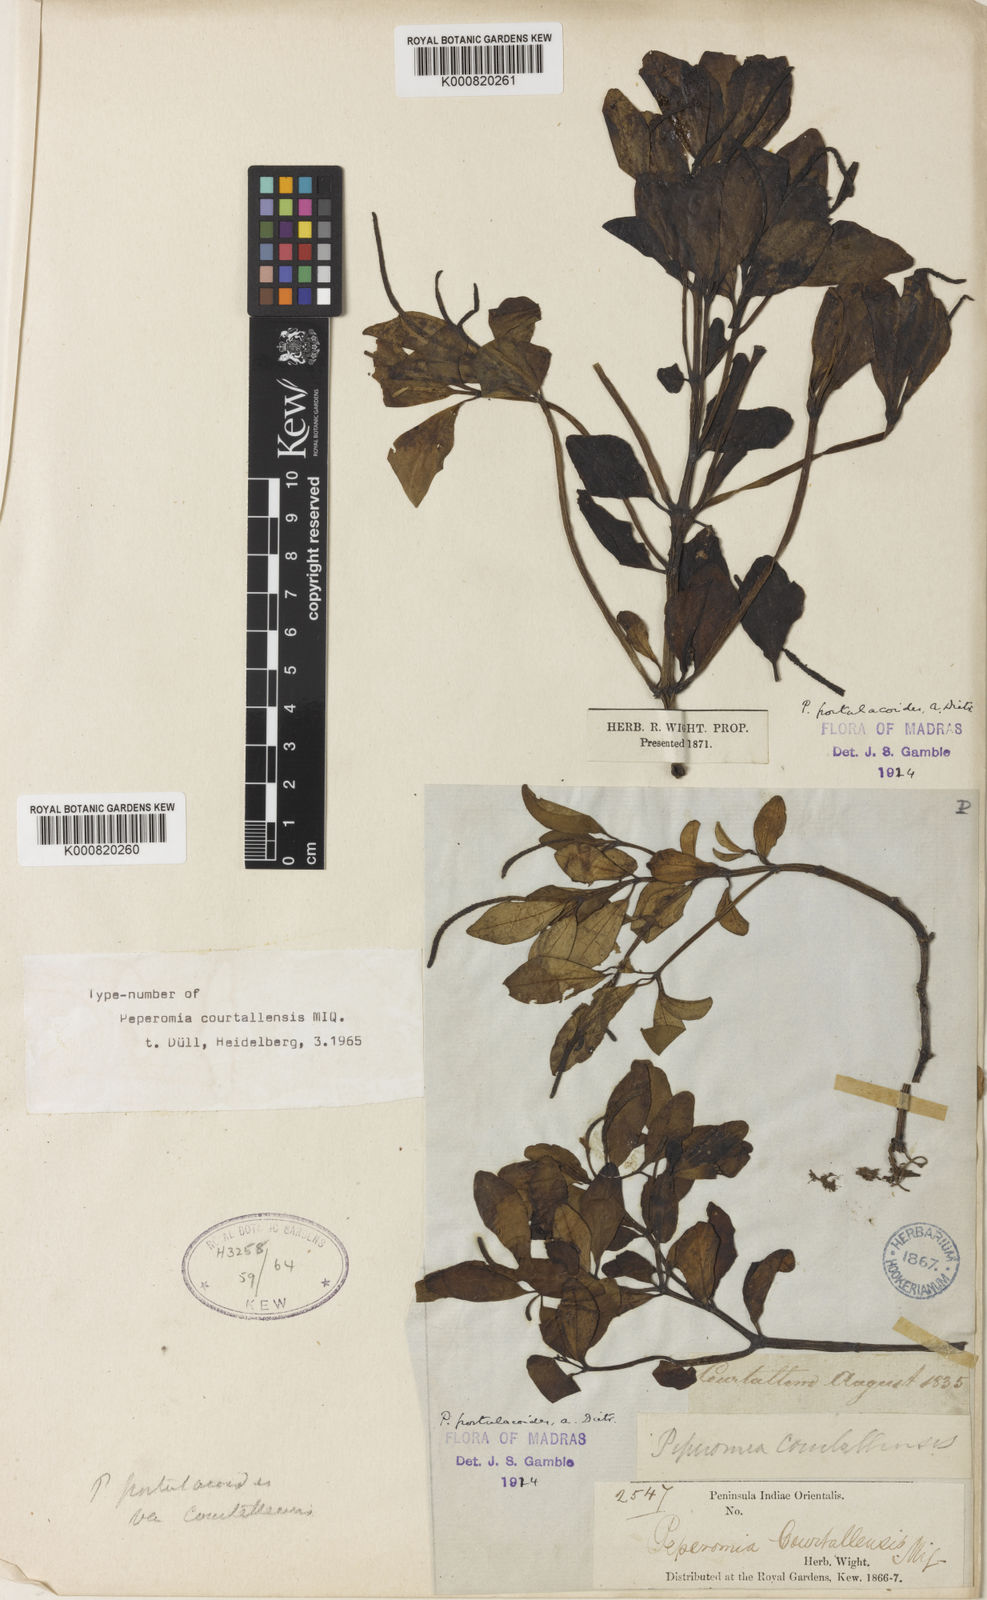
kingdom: Plantae
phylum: Tracheophyta
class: Magnoliopsida
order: Piperales
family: Piperaceae
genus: Peperomia
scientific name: Peperomia portulacoides
